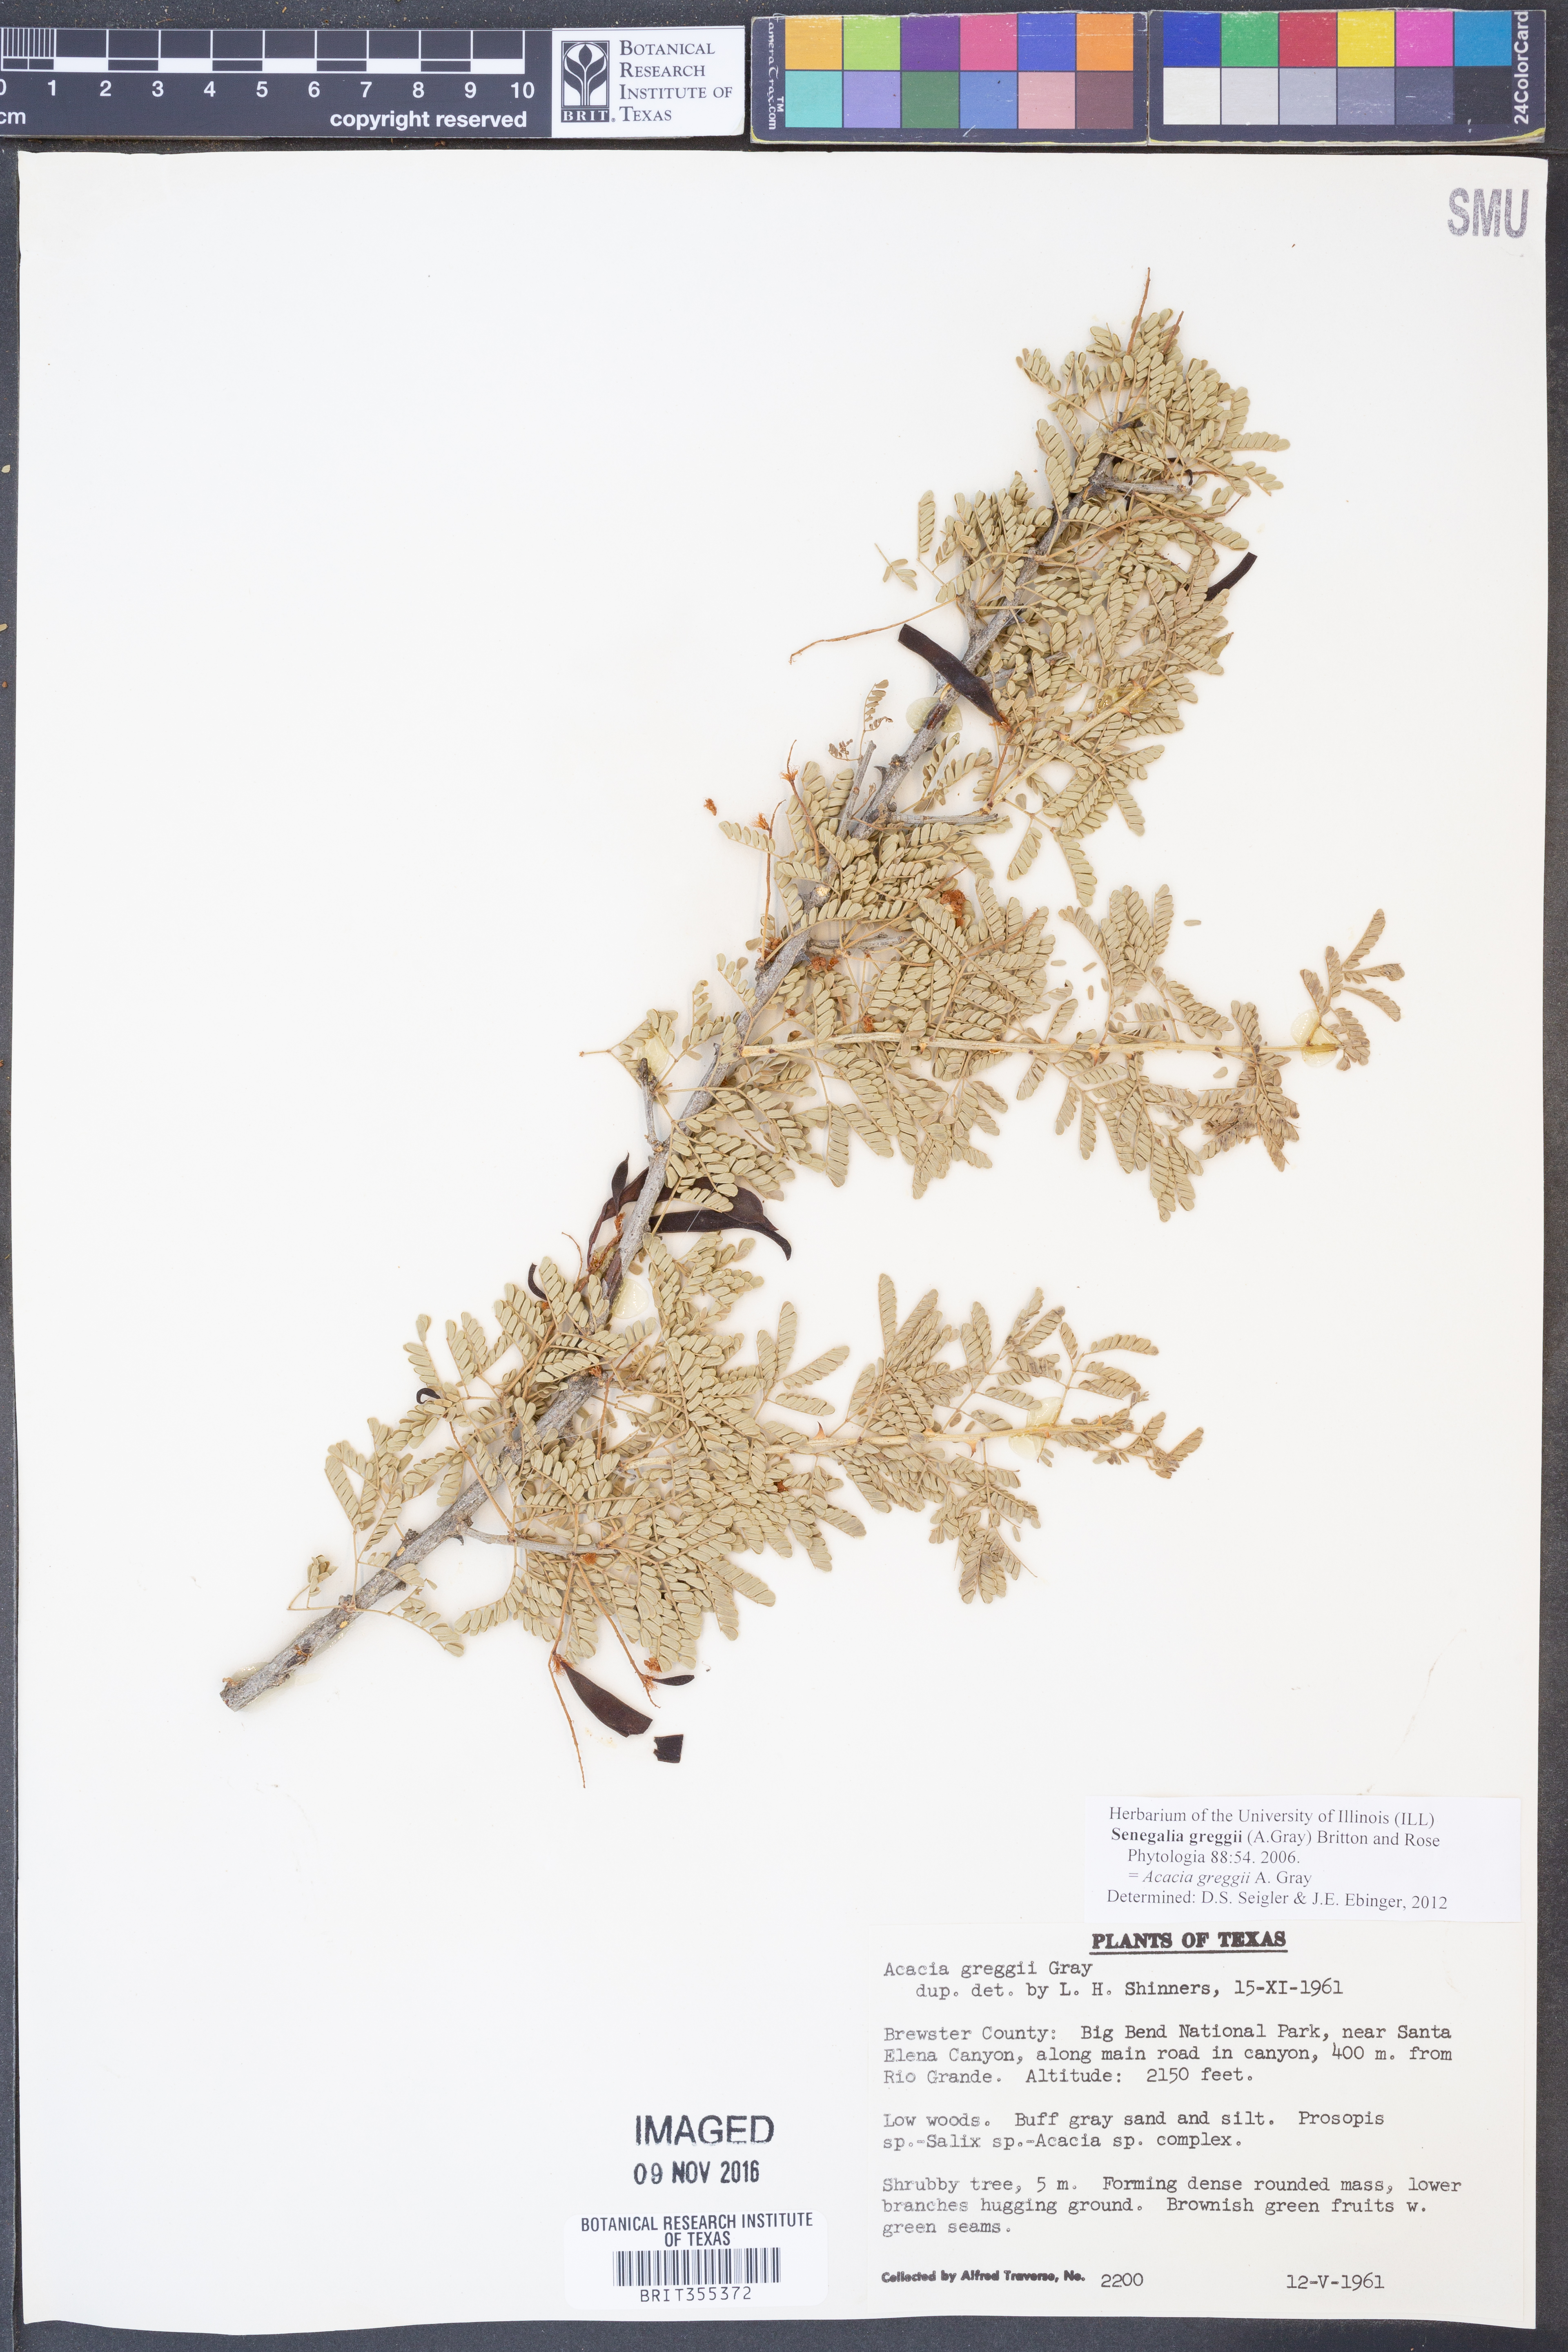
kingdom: Plantae
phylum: Tracheophyta
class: Magnoliopsida
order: Fabales
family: Fabaceae
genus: Senegalia
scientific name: Senegalia greggii
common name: Texas-mimosa
